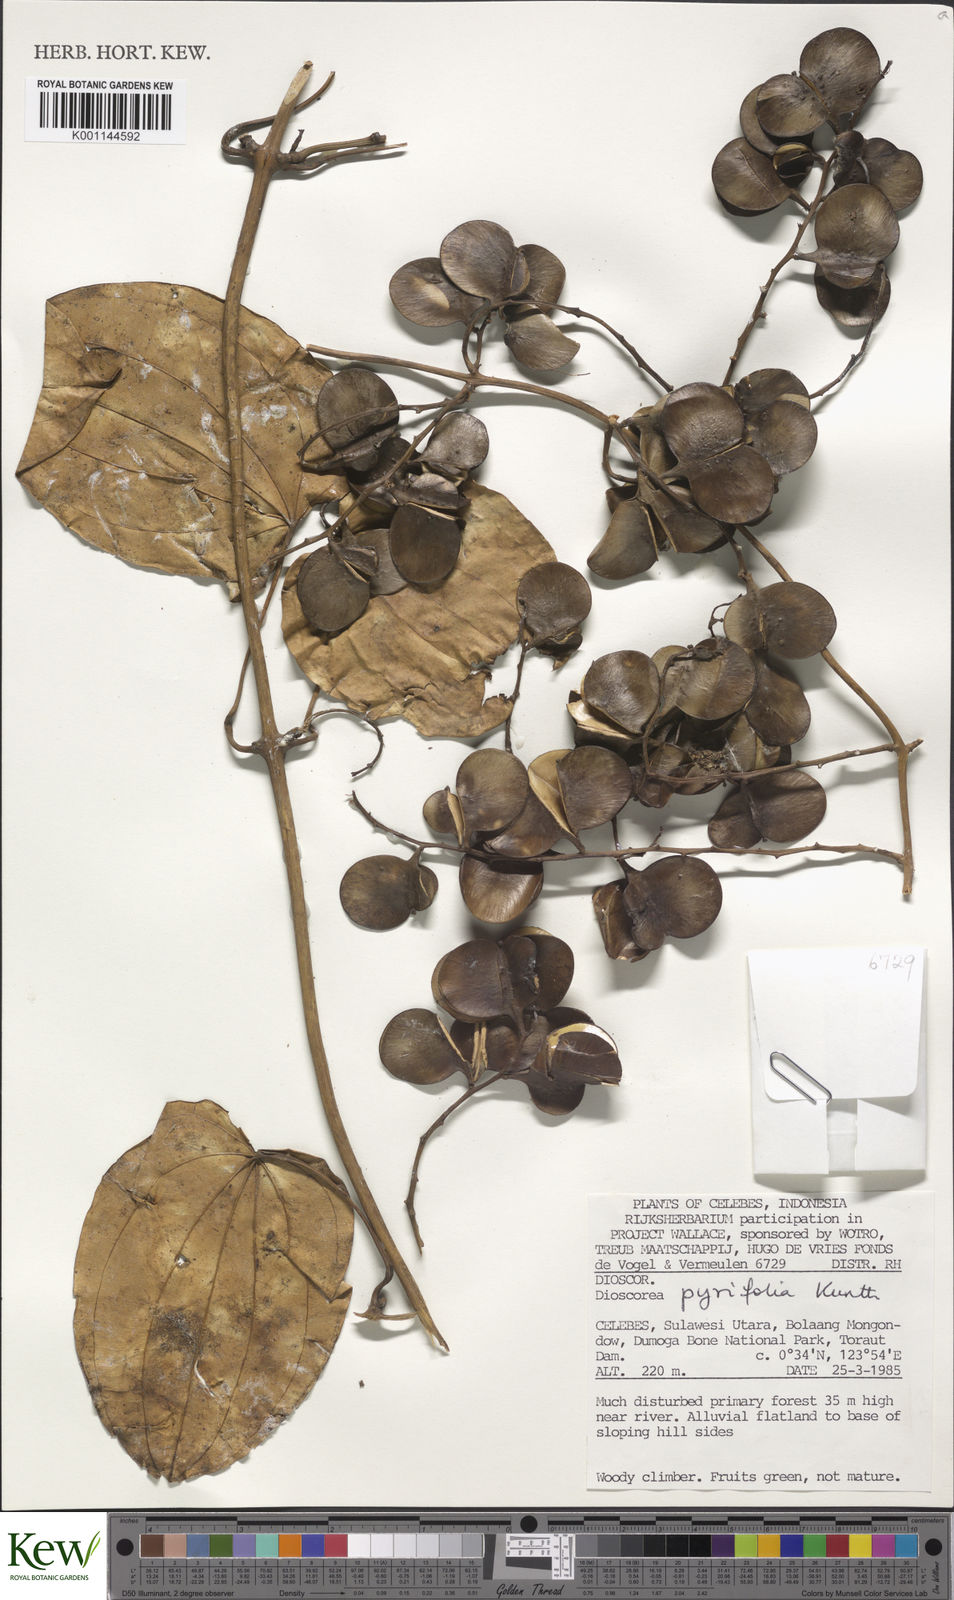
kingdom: Plantae
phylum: Tracheophyta
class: Liliopsida
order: Dioscoreales
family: Dioscoreaceae
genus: Dioscorea
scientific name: Dioscorea pyrifolia
